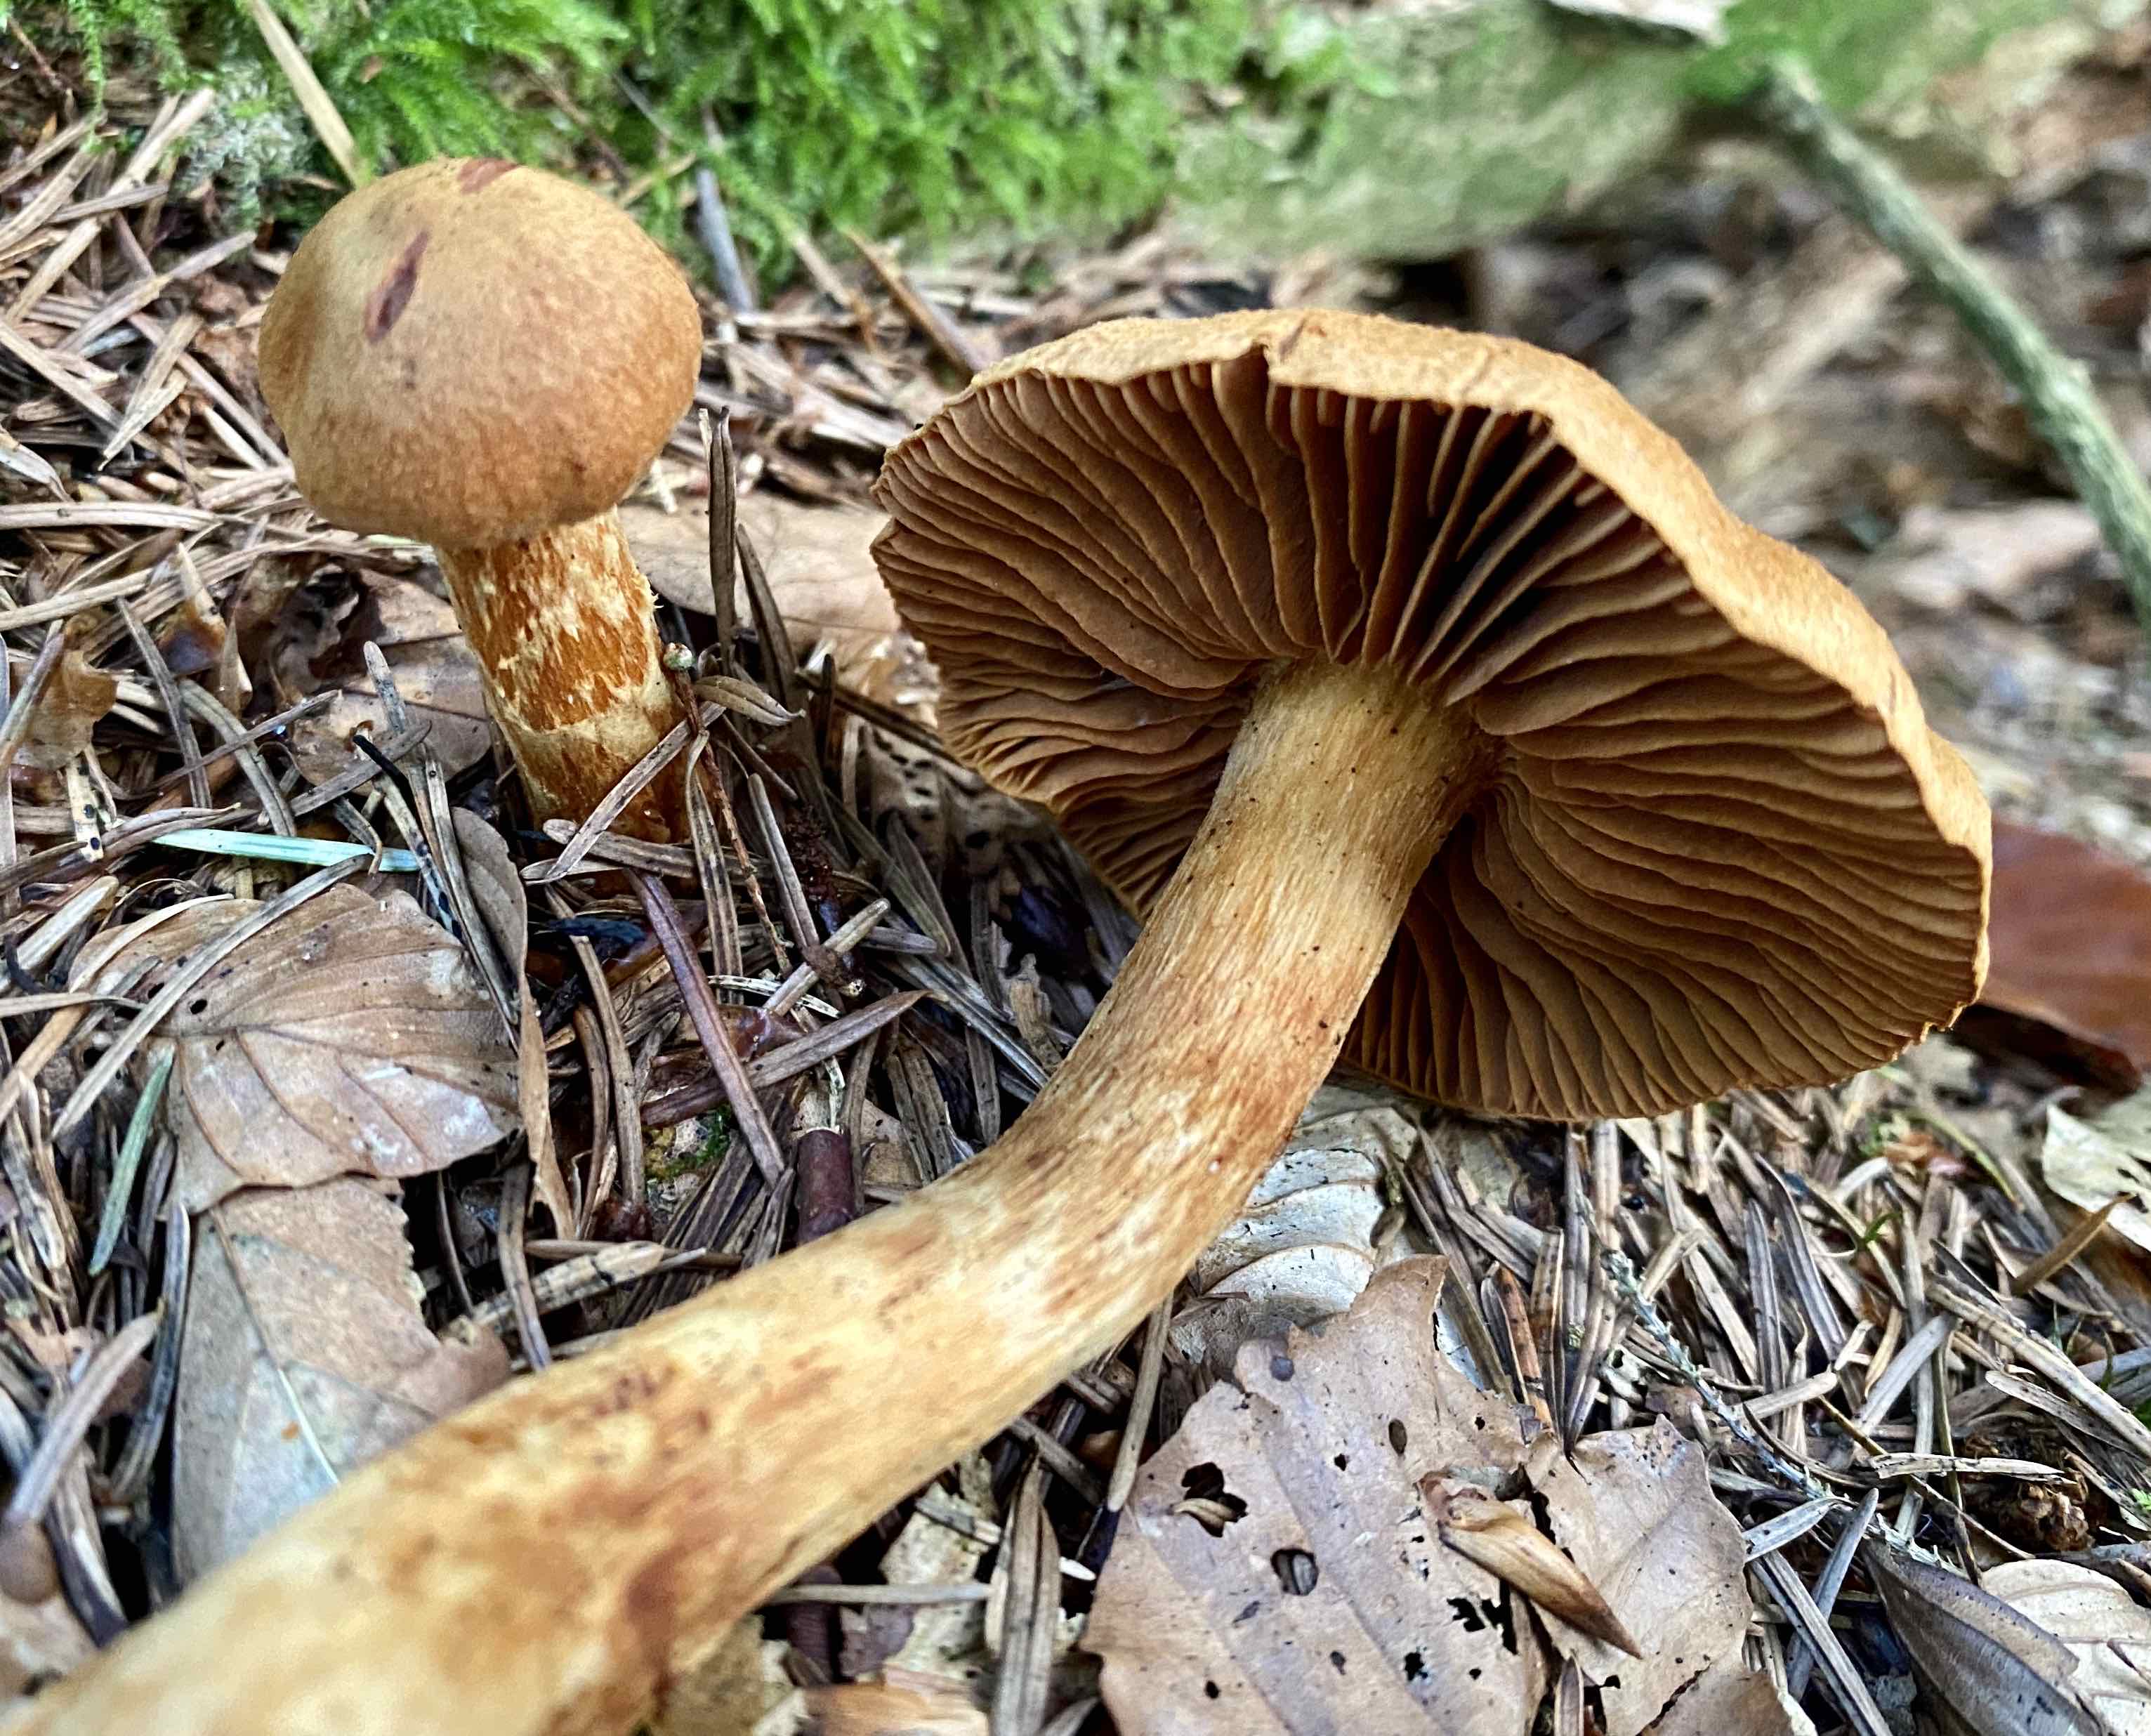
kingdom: Fungi
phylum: Basidiomycota
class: Agaricomycetes
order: Agaricales
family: Cortinariaceae
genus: Cortinarius
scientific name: Cortinarius rubellus
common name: puklet gift-slørhat
